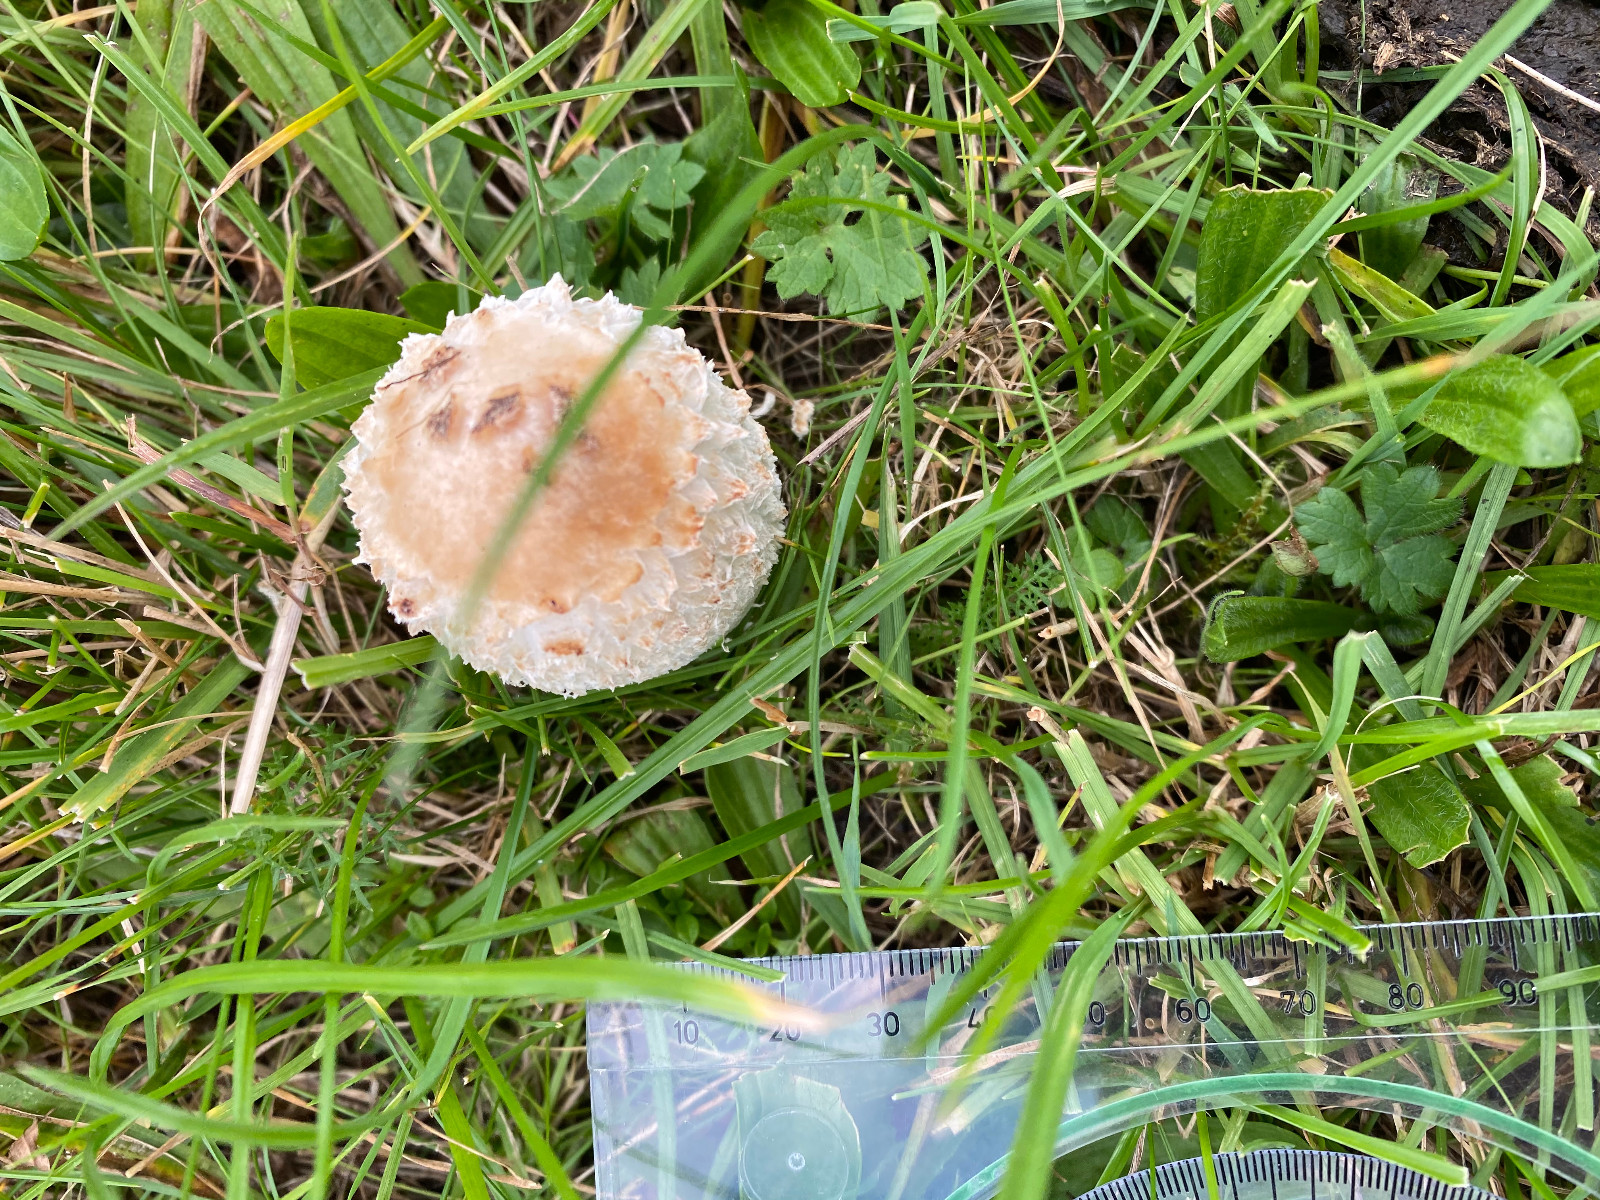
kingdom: Fungi
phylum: Basidiomycota
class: Agaricomycetes
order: Agaricales
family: Agaricaceae
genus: Coprinus
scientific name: Coprinus comatus
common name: stor parykhat
